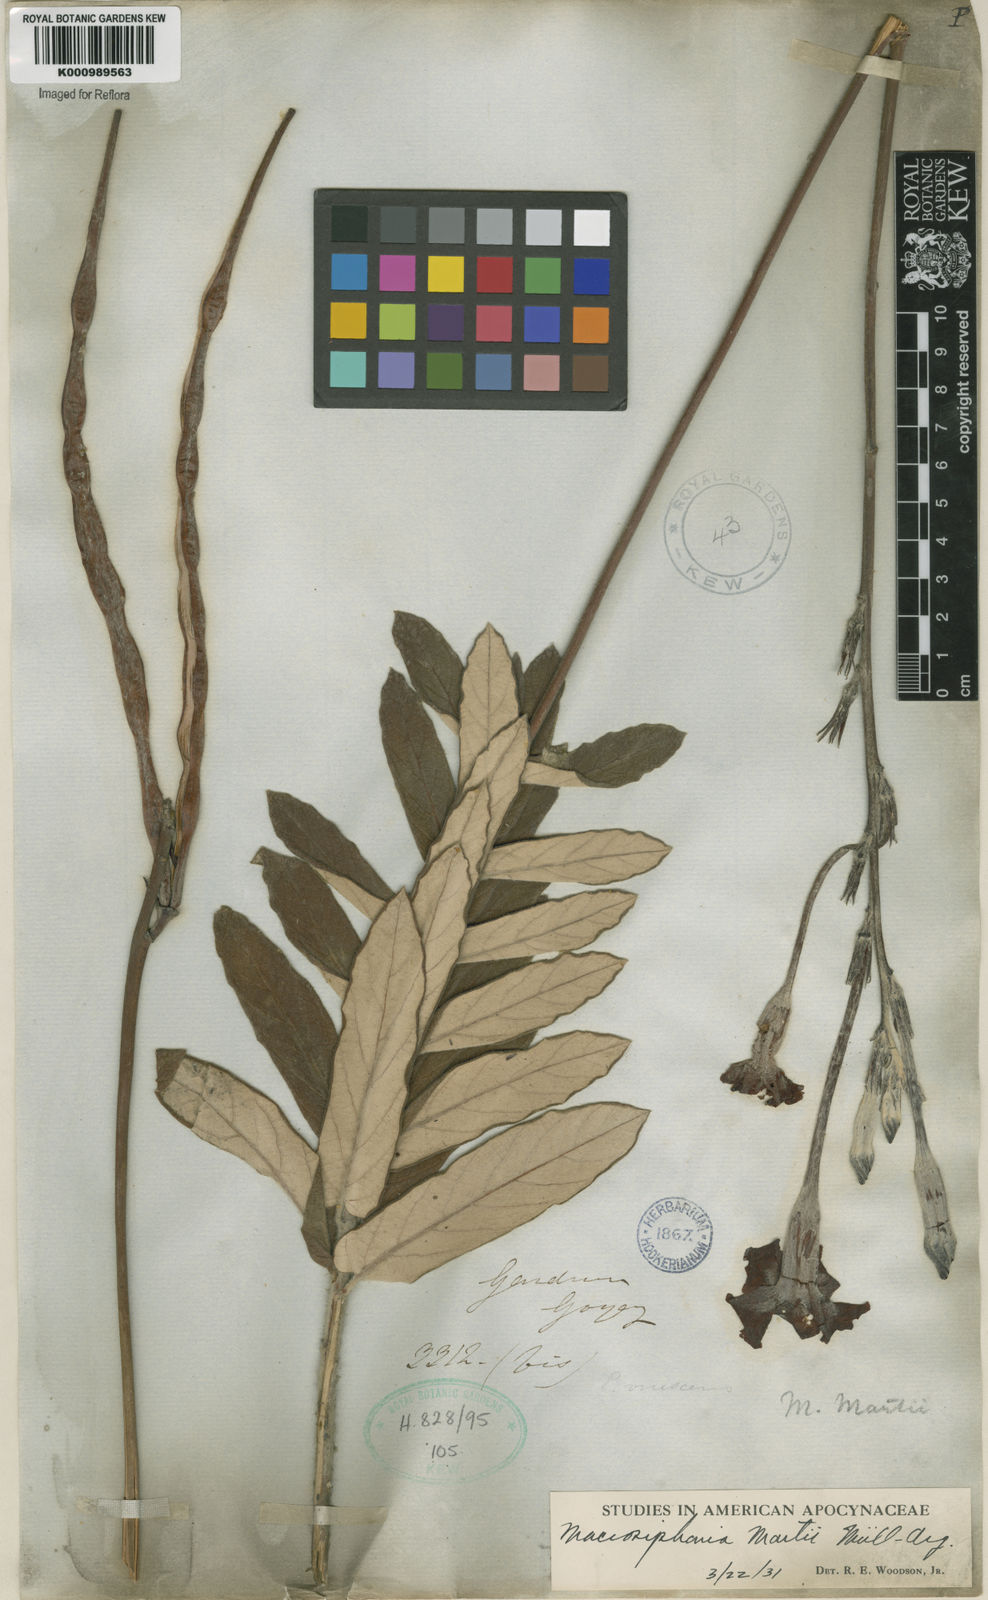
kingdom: Plantae
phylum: Tracheophyta
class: Magnoliopsida
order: Gentianales
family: Apocynaceae
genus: Mandevilla
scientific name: Mandevilla
